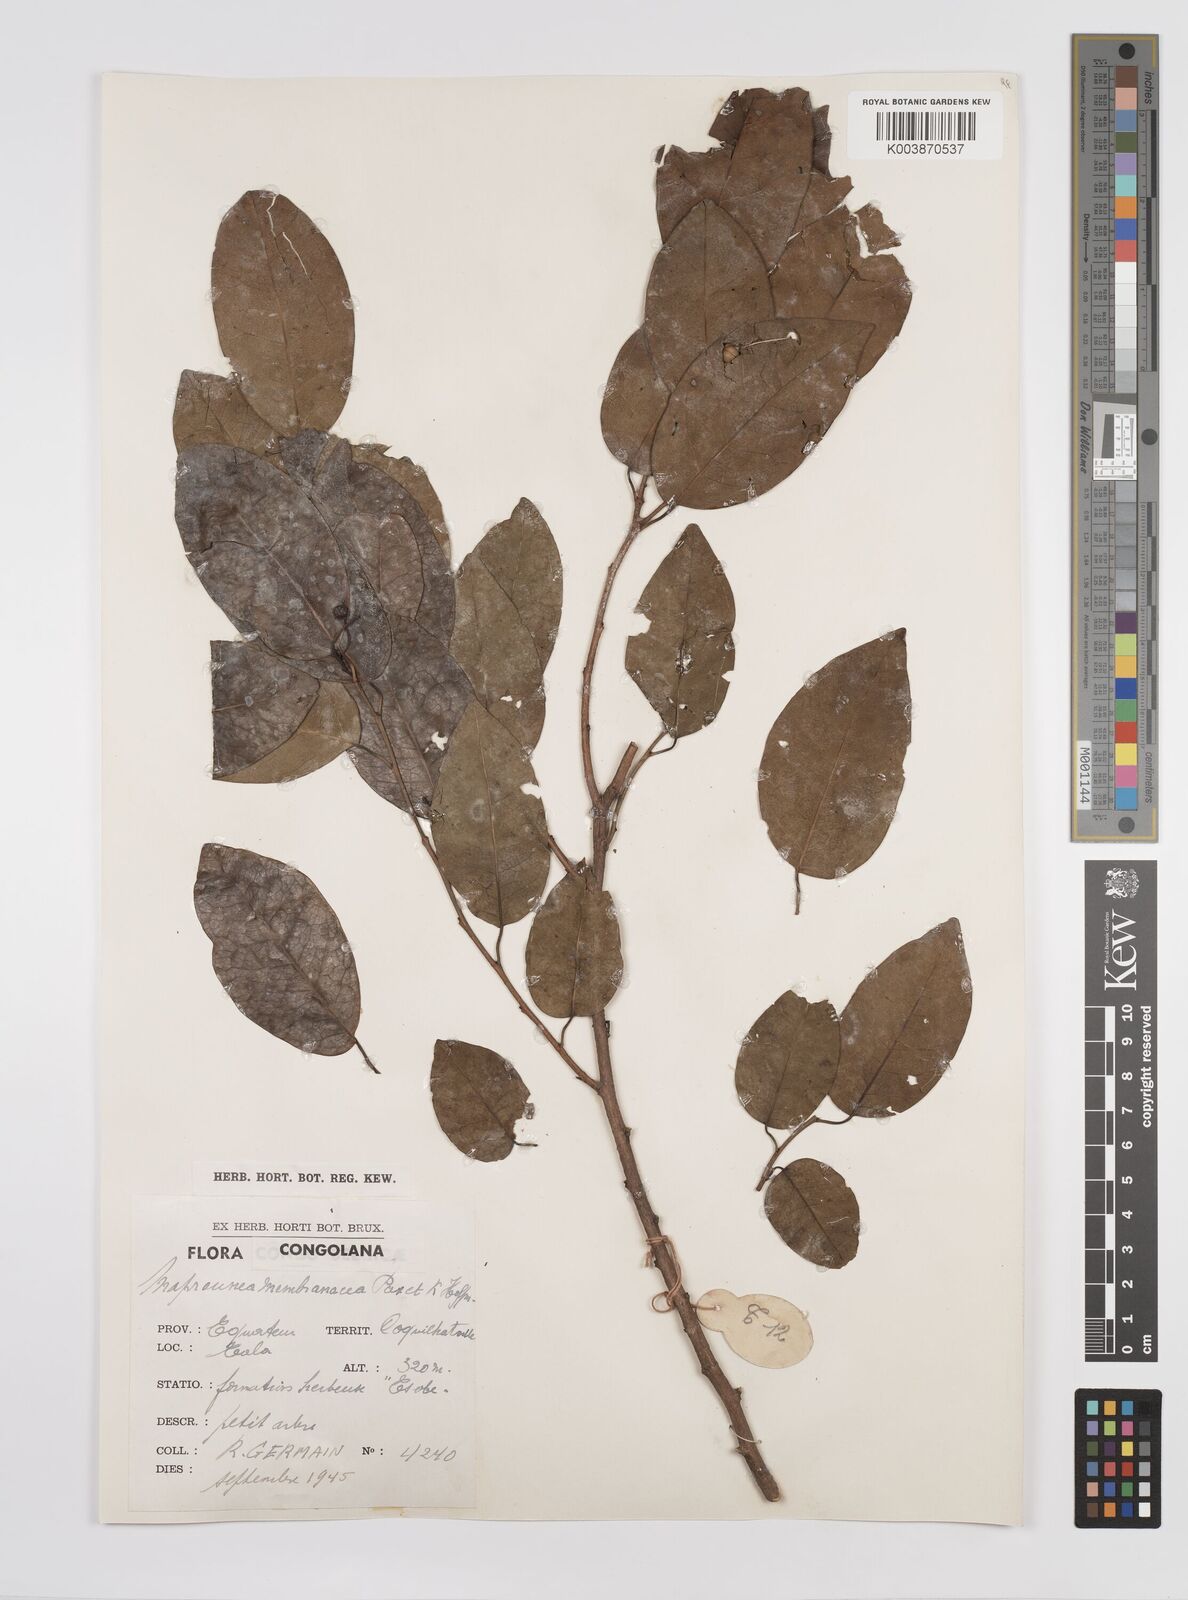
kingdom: Plantae
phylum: Tracheophyta
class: Magnoliopsida
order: Malpighiales
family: Euphorbiaceae
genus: Maprounea
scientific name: Maprounea membranacea
